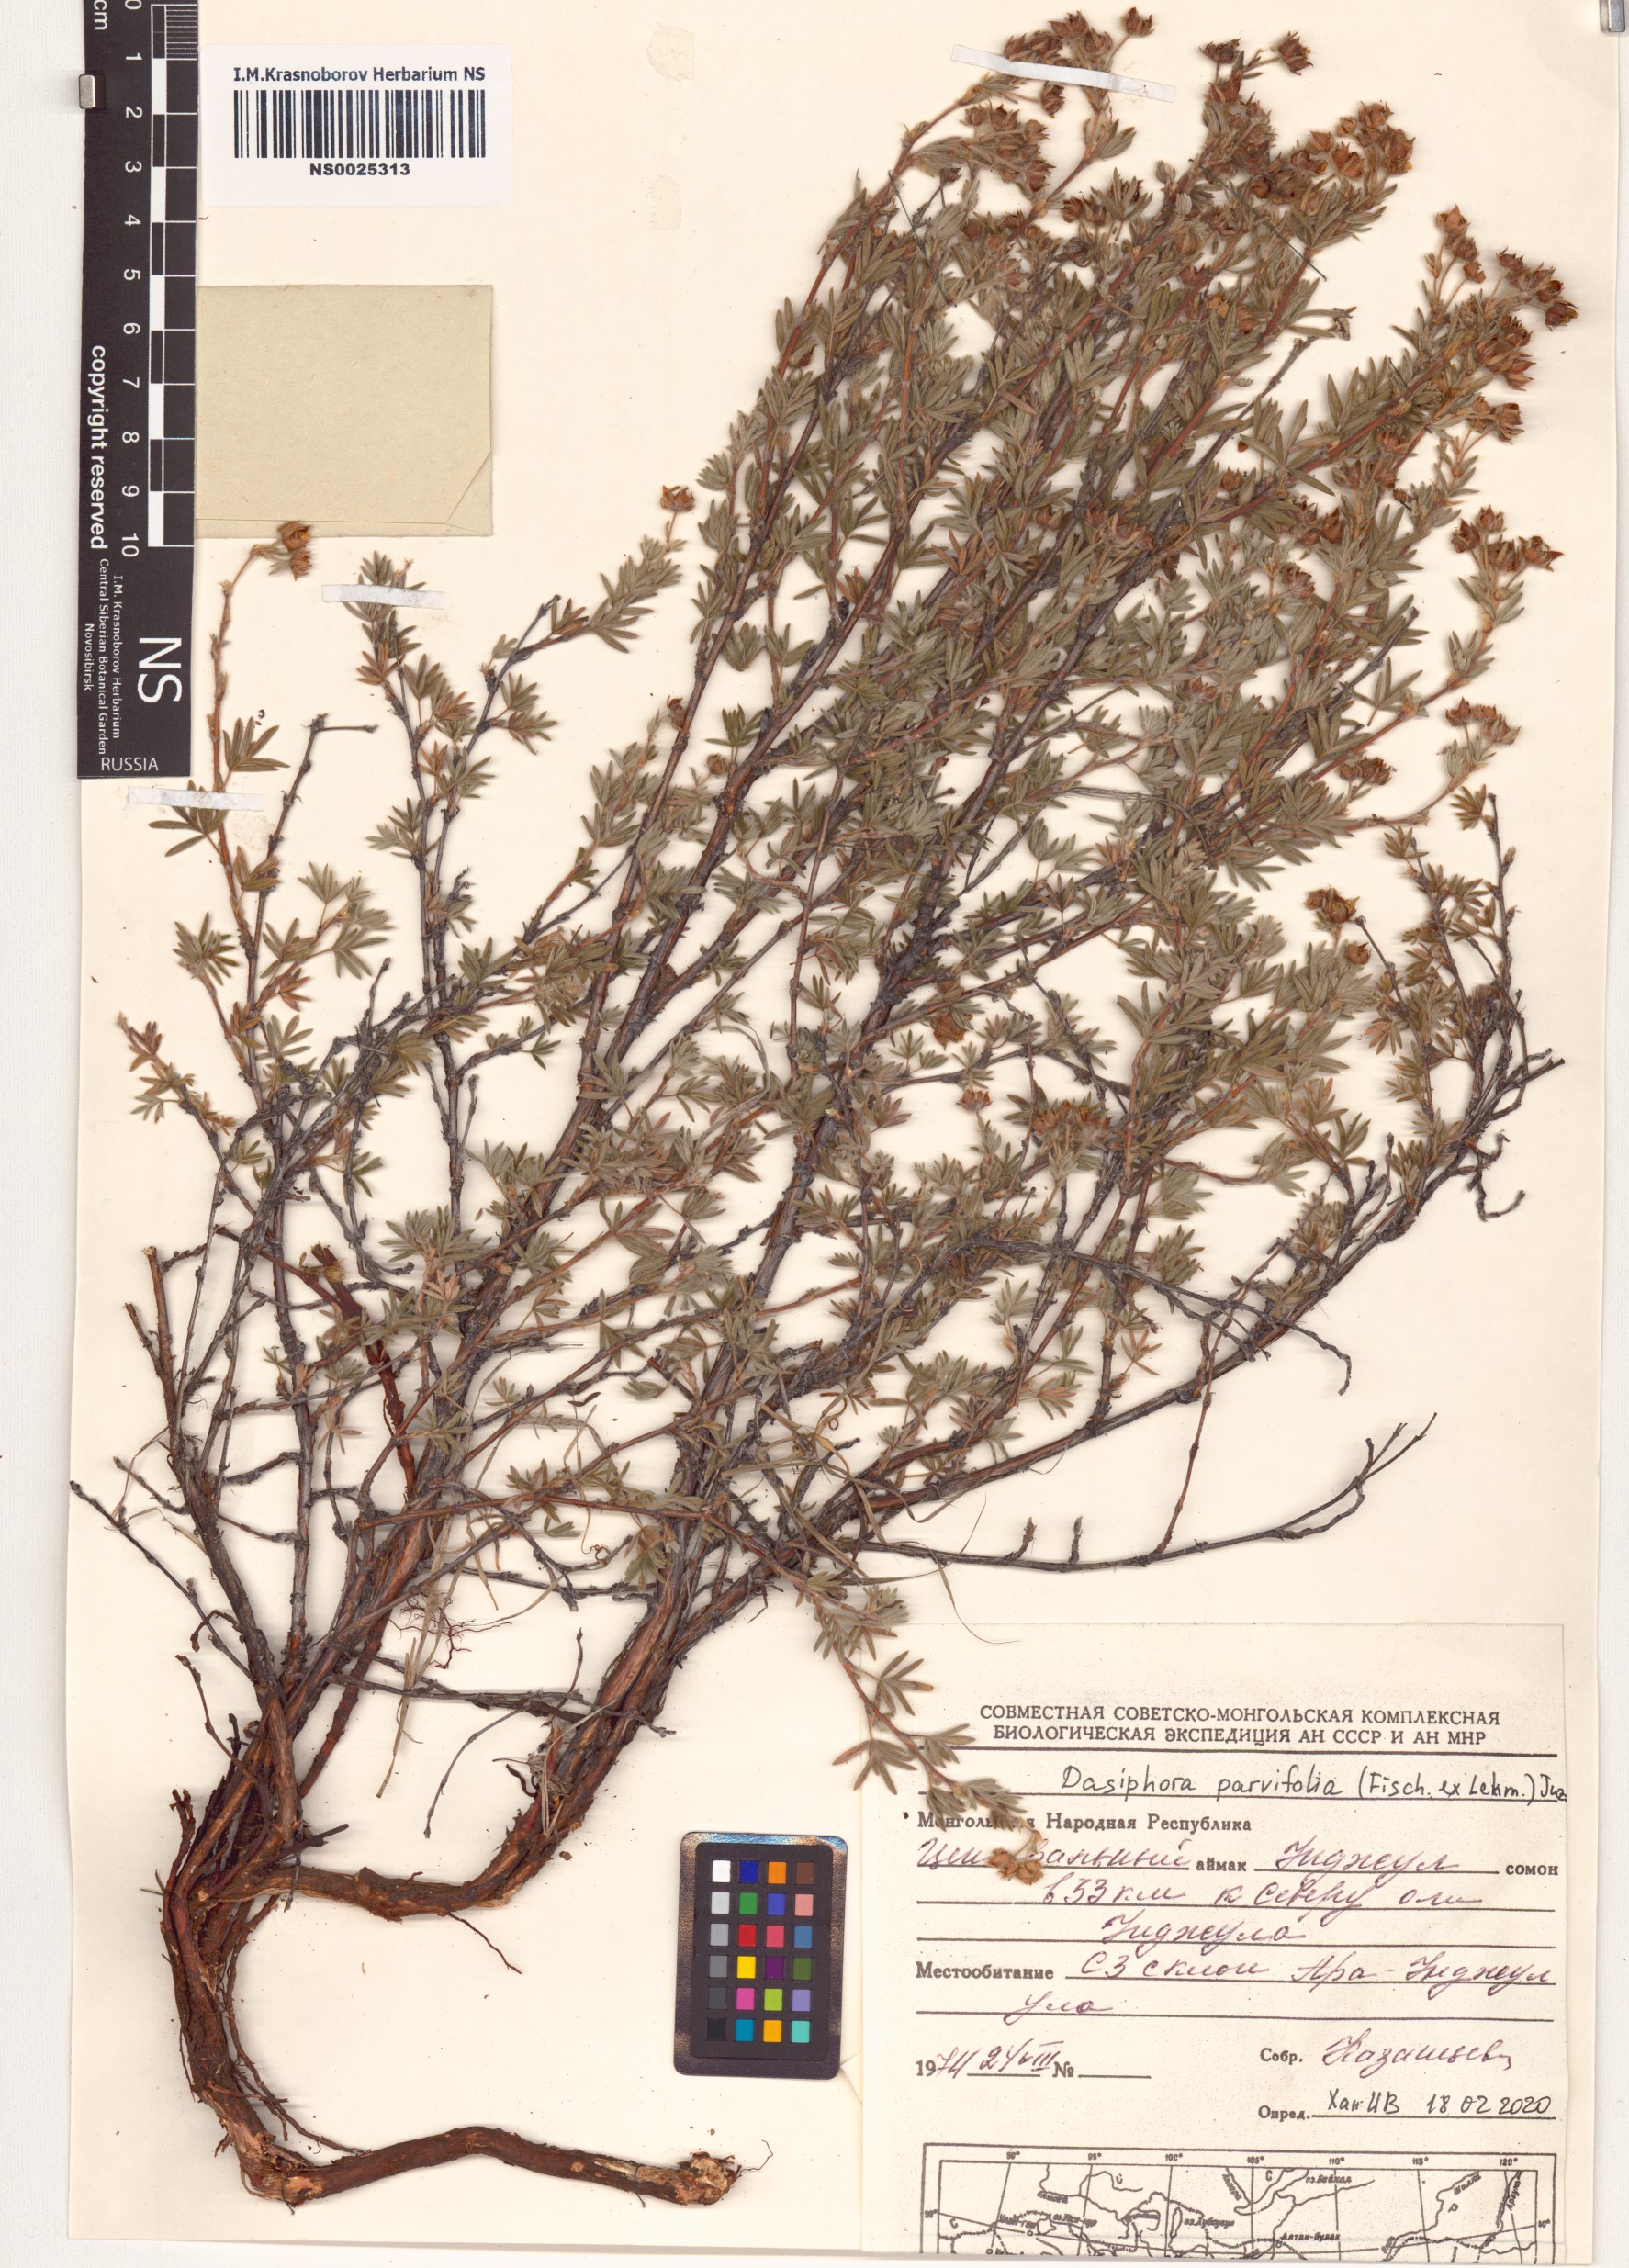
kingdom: Plantae
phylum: Tracheophyta
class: Magnoliopsida
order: Rosales
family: Rosaceae
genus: Dasiphora
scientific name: Dasiphora parvifolia
